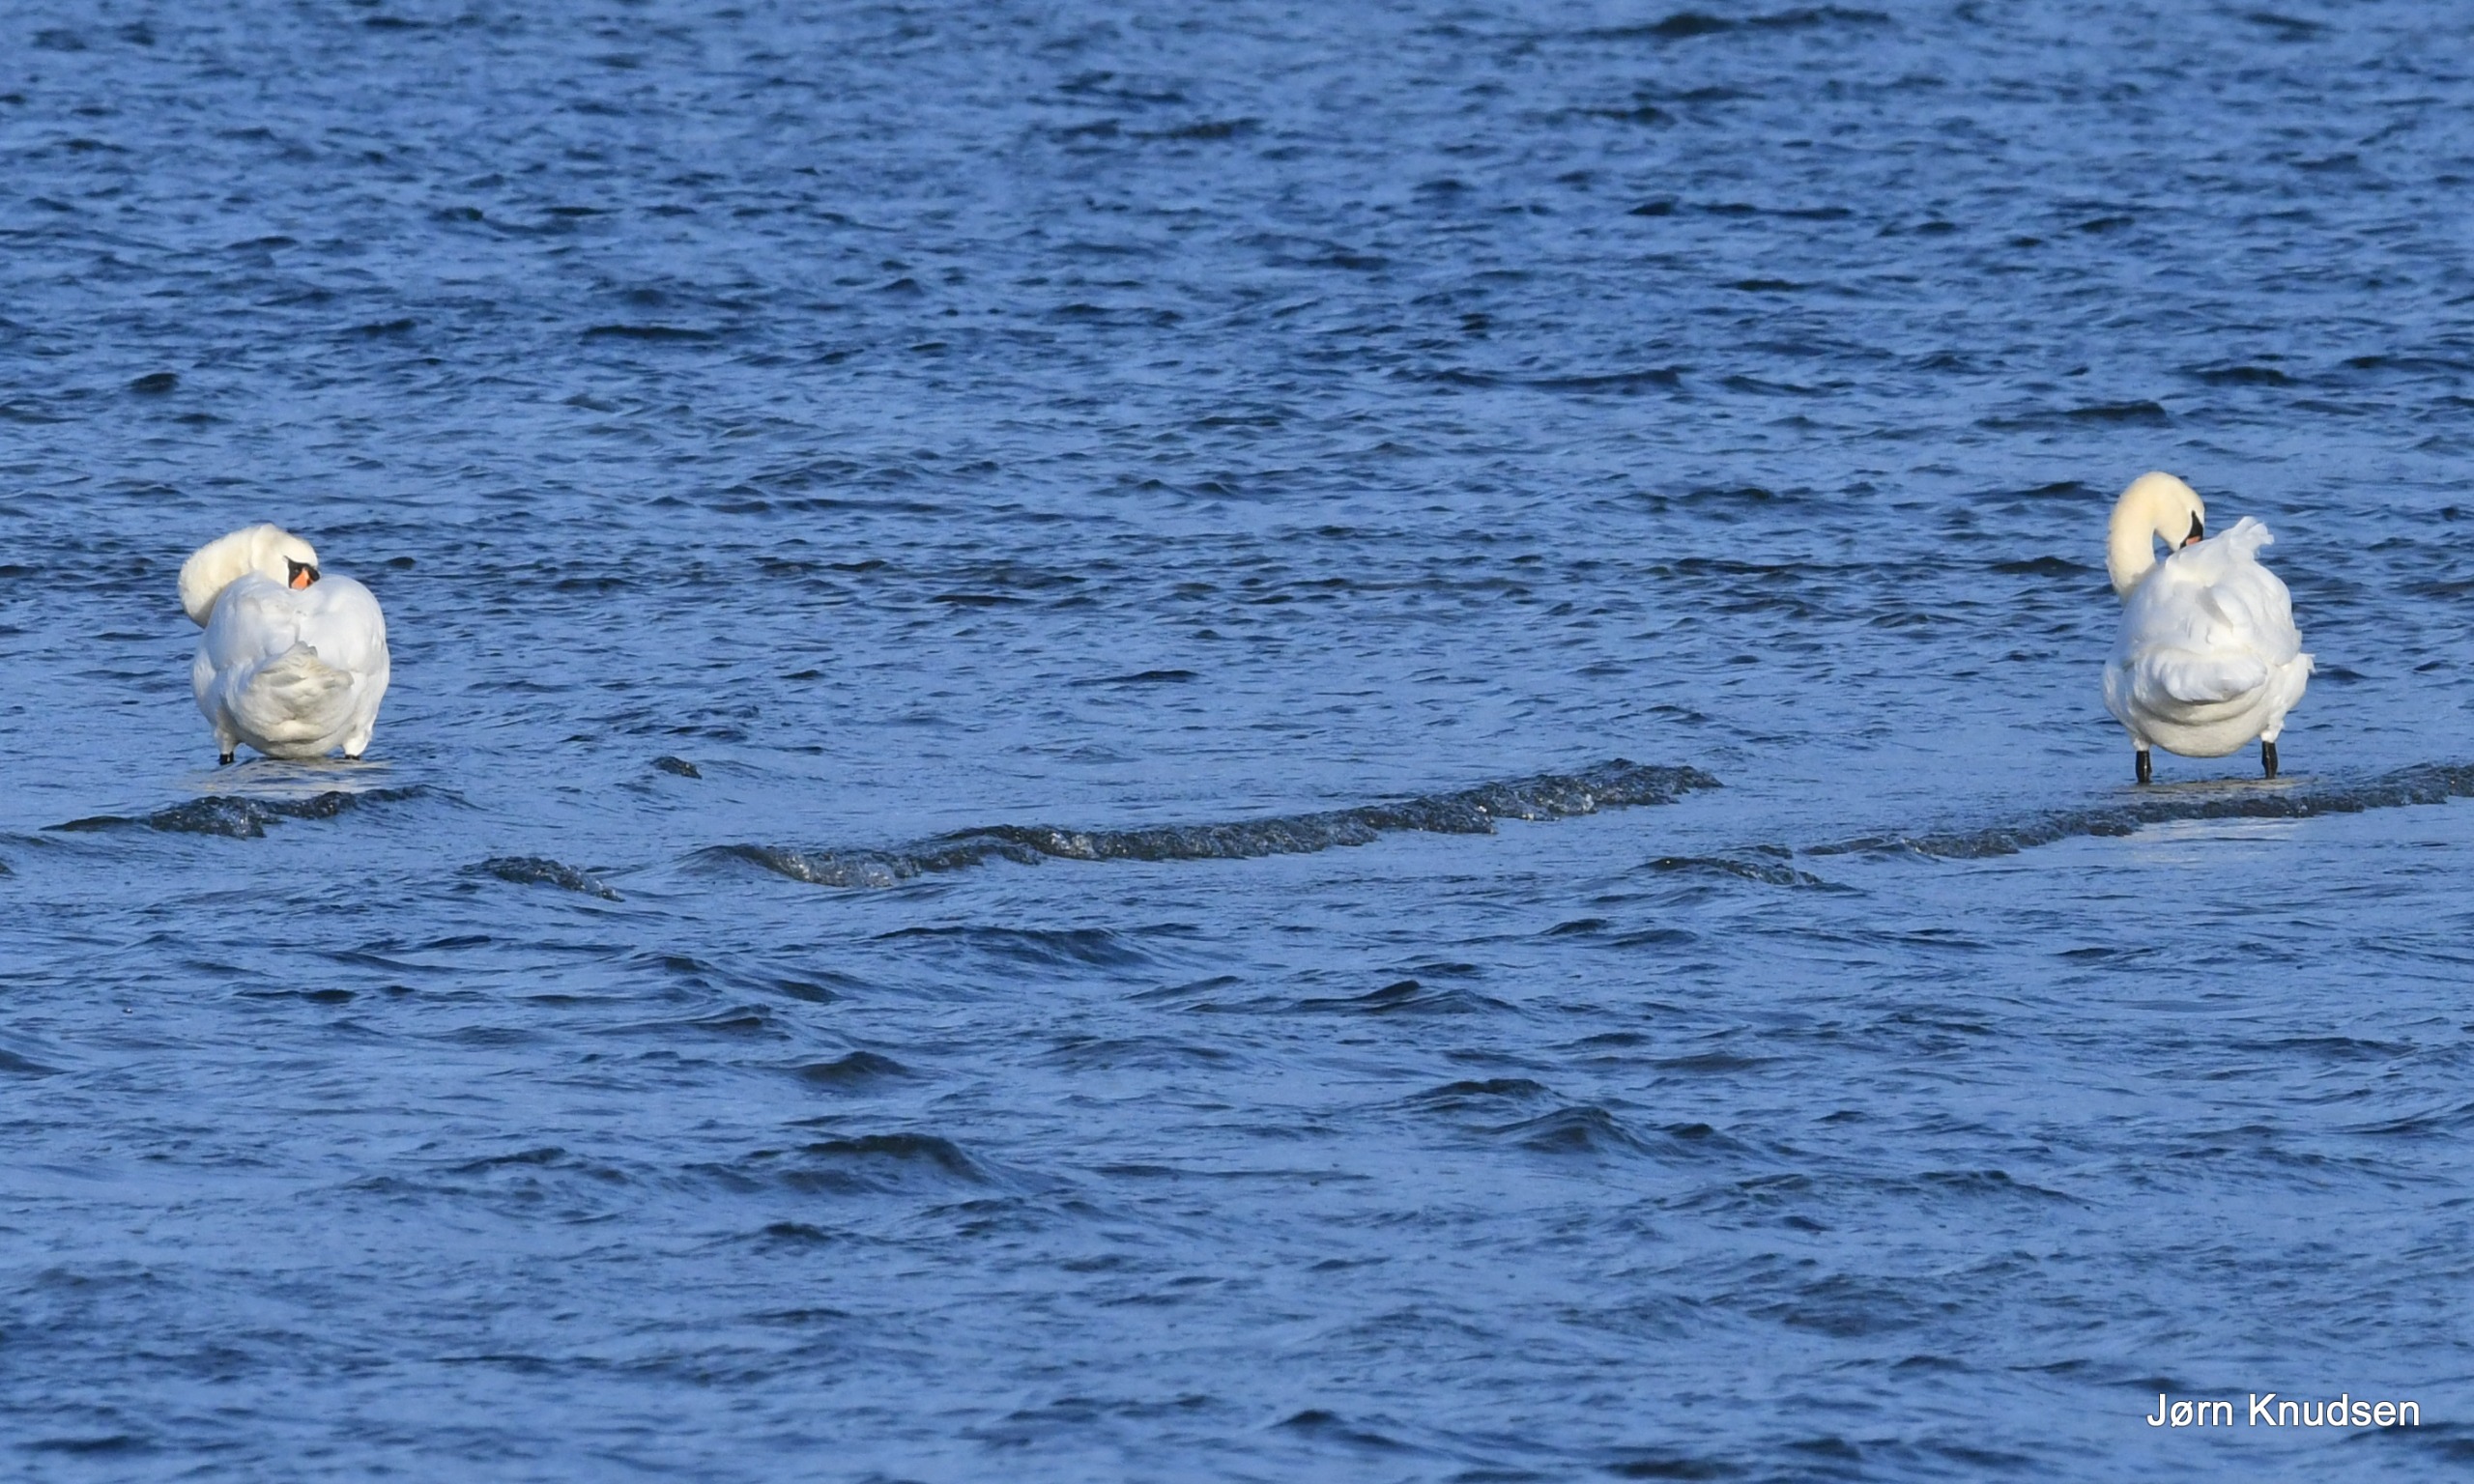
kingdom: Animalia
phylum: Chordata
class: Aves
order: Anseriformes
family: Anatidae
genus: Cygnus
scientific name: Cygnus olor
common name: Knopsvane
